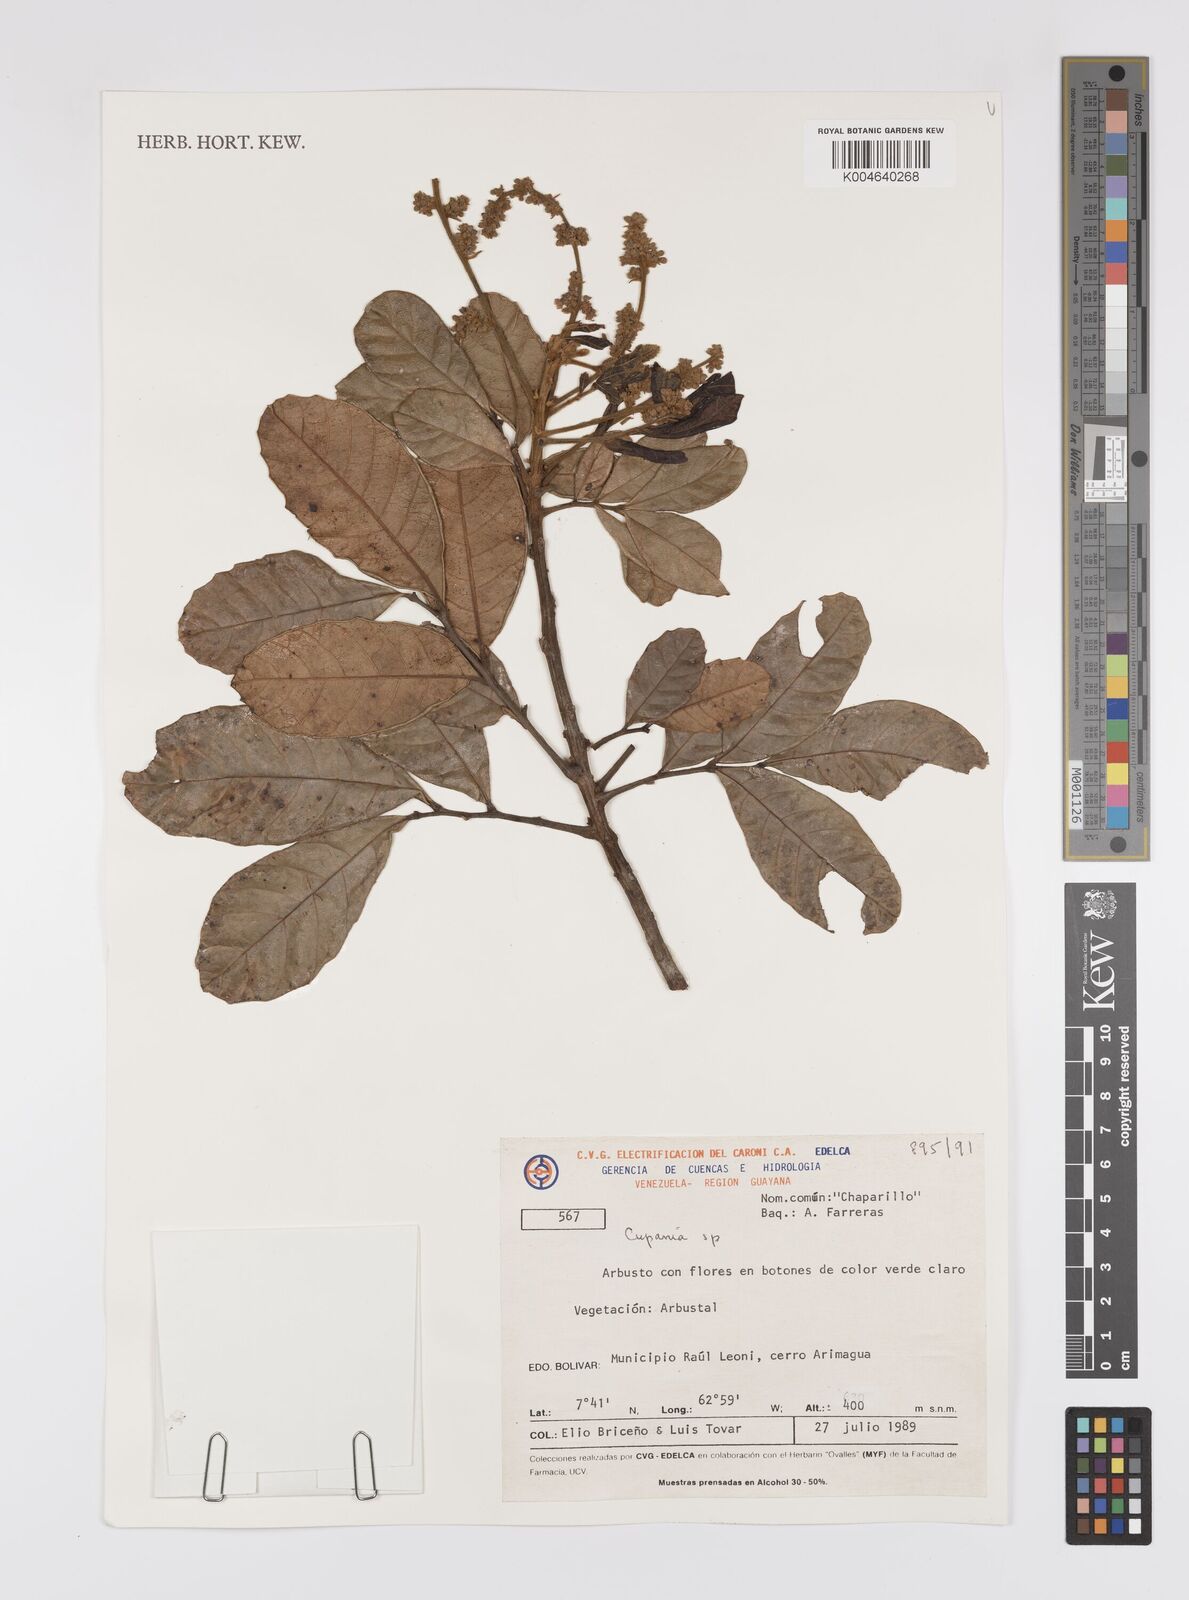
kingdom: Plantae
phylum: Tracheophyta
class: Magnoliopsida
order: Sapindales
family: Sapindaceae
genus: Cupania
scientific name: Cupania
